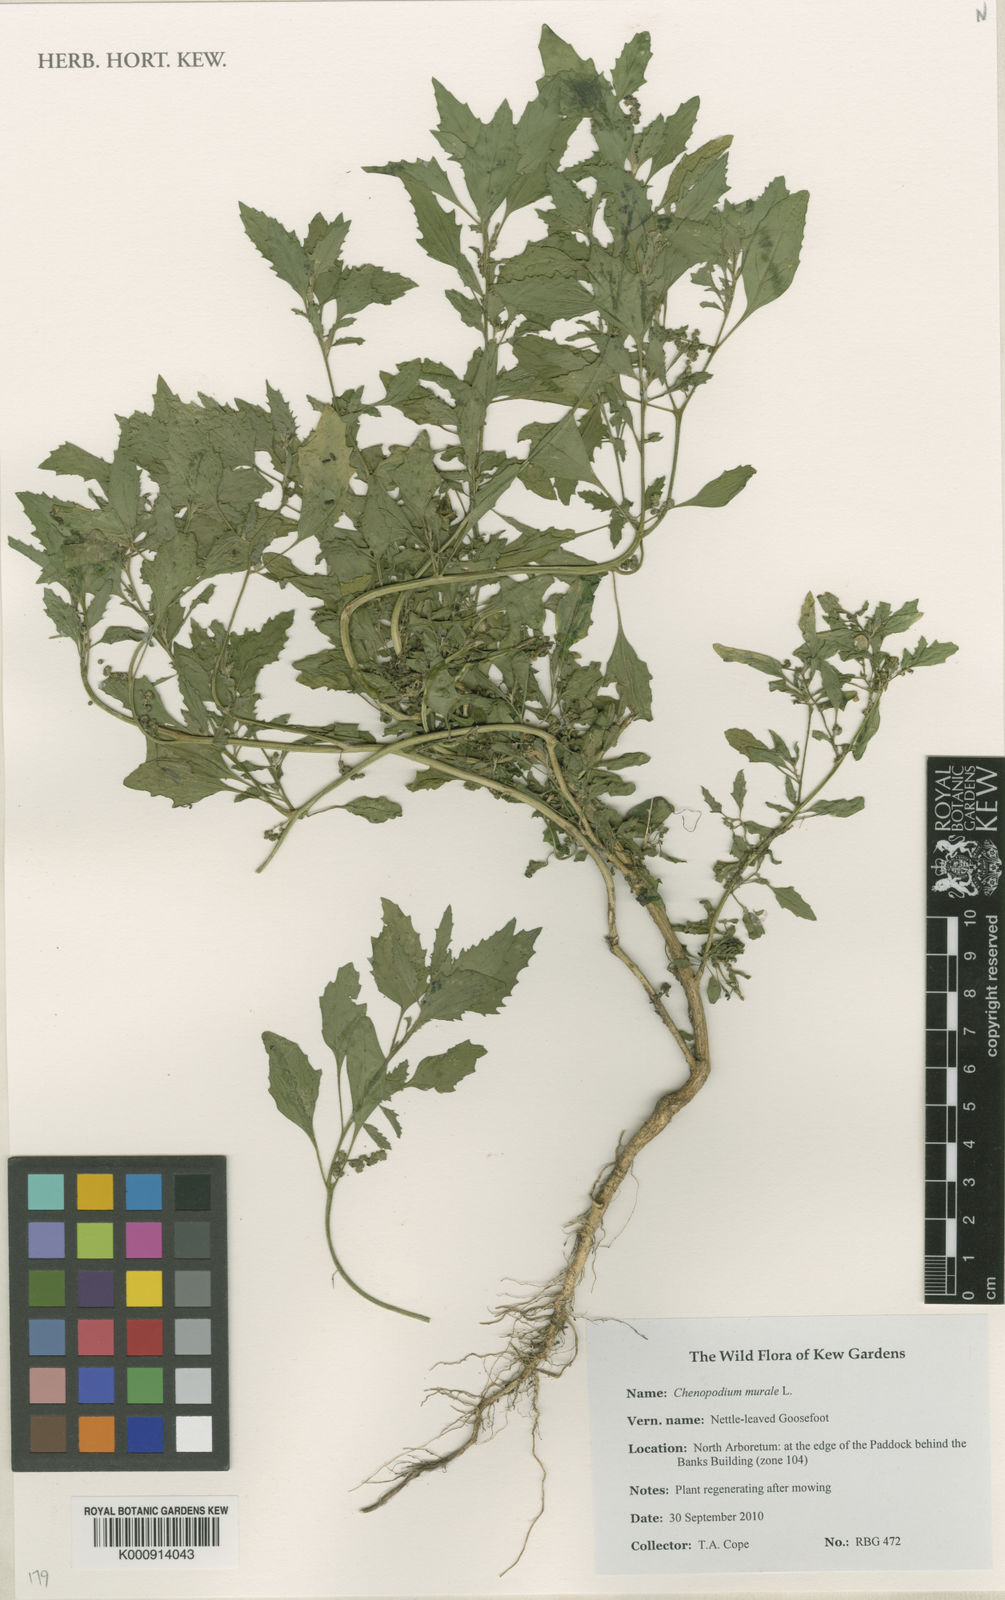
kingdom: Plantae
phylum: Tracheophyta
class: Magnoliopsida
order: Caryophyllales
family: Amaranthaceae
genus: Chenopodiastrum
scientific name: Chenopodiastrum murale
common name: Sowbane
